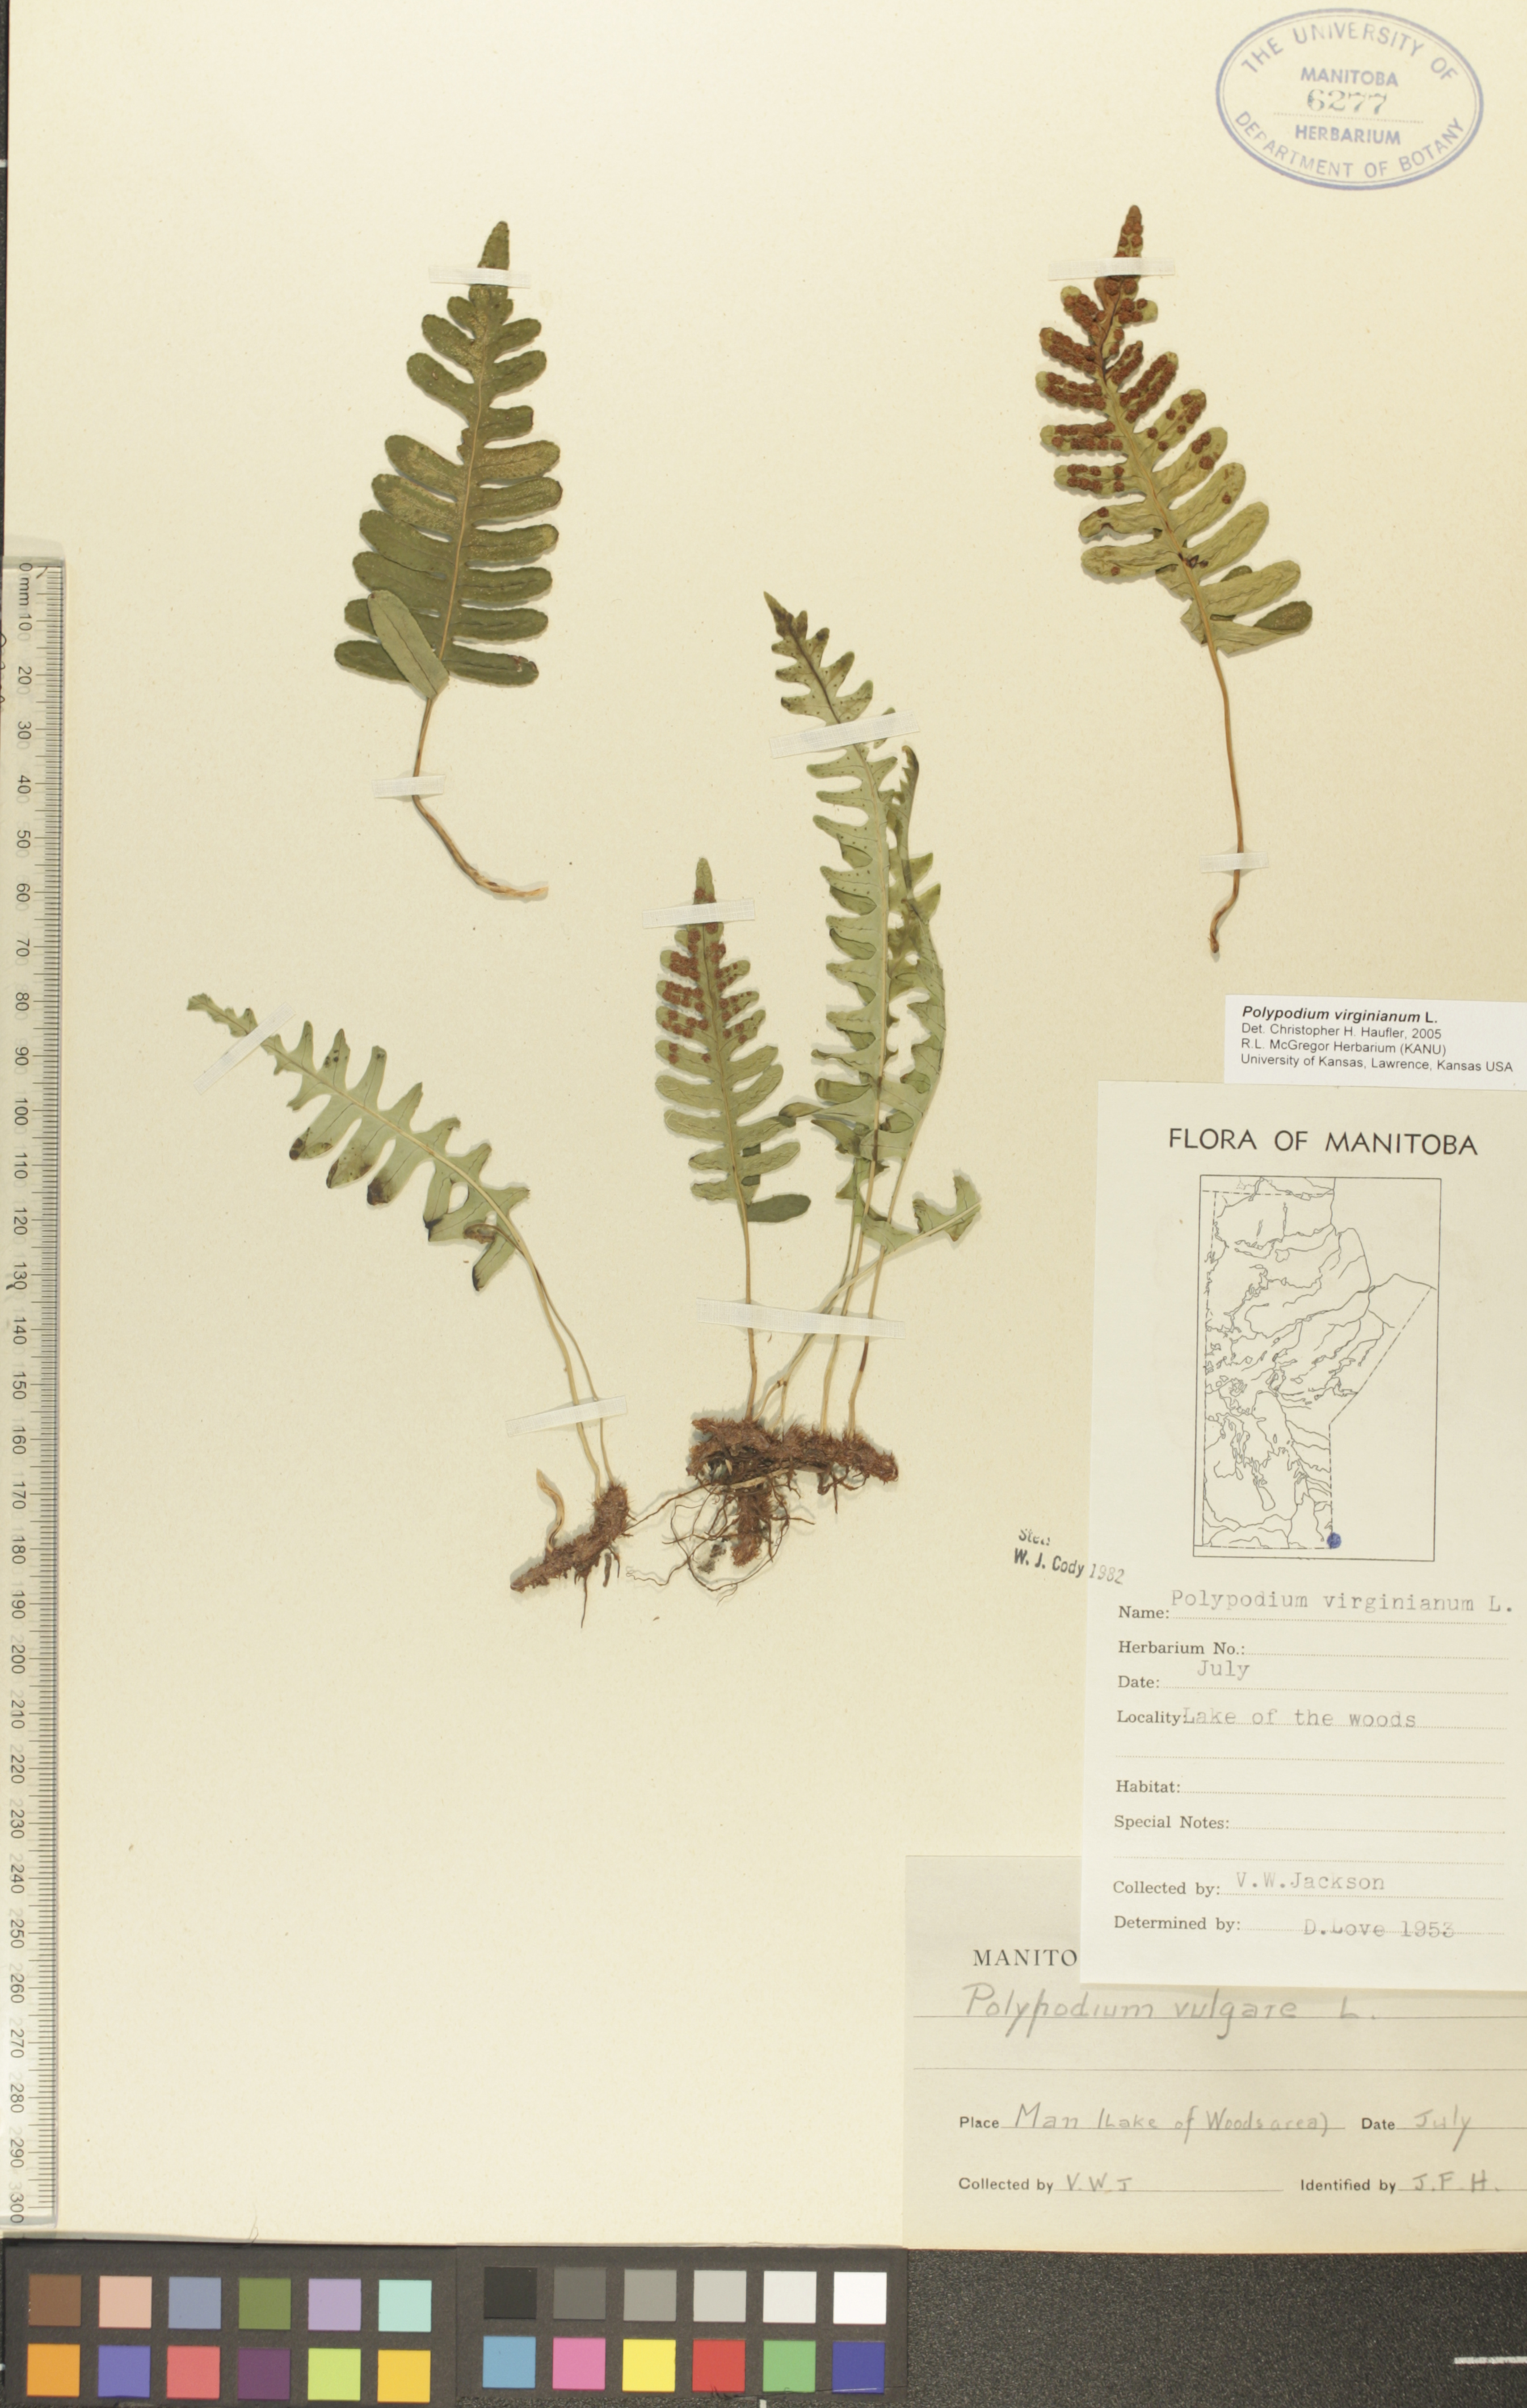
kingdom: Plantae
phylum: Tracheophyta
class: Polypodiopsida
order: Polypodiales
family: Polypodiaceae
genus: Polypodium
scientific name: Polypodium virginianum
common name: American wall fern
